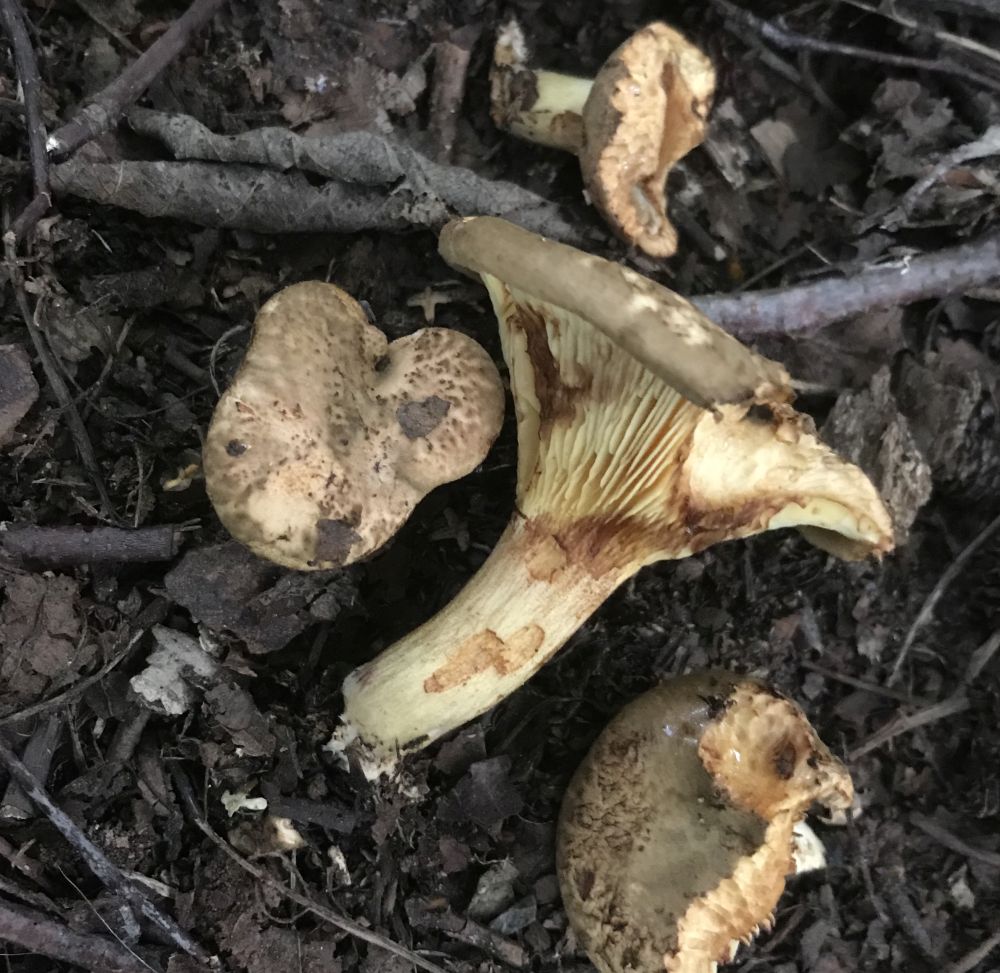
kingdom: Fungi
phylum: Basidiomycota
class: Agaricomycetes
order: Boletales
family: Paxillaceae
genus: Paxillus
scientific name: Paxillus rubicundulus
